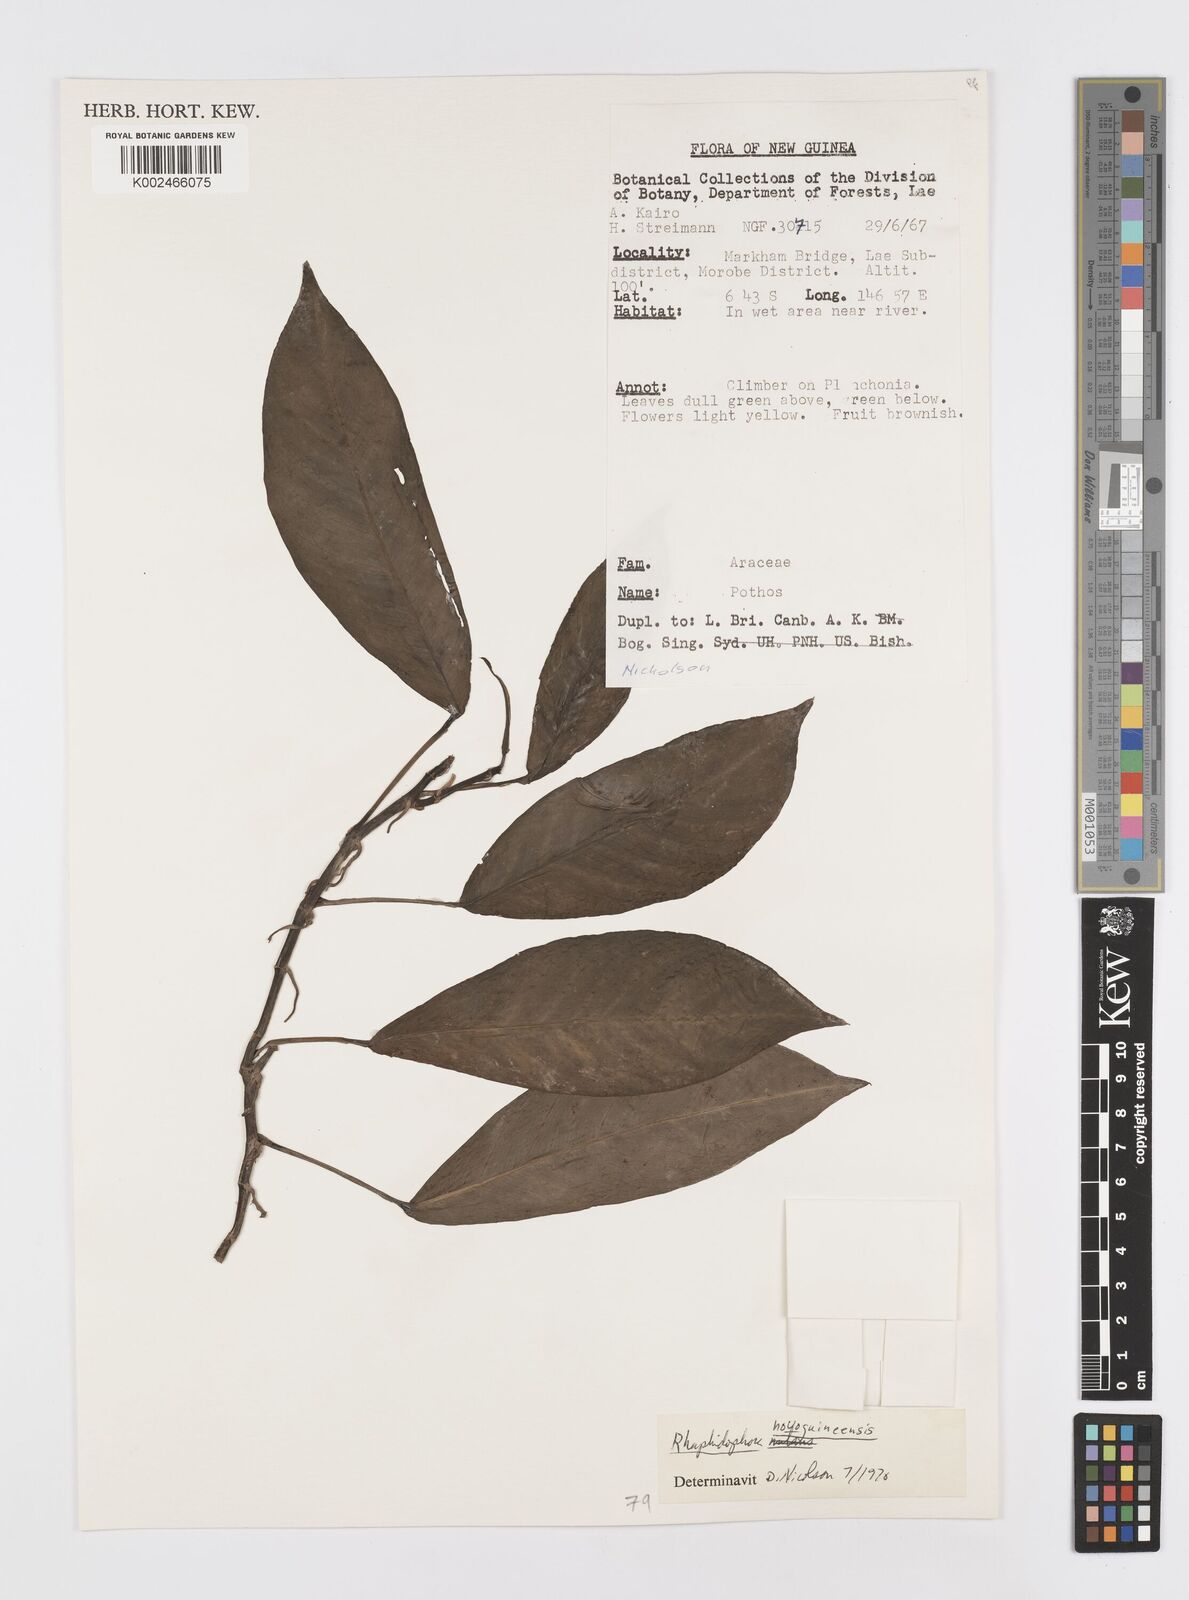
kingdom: Plantae
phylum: Tracheophyta
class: Liliopsida
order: Alismatales
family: Araceae
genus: Rhaphidophora
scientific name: Rhaphidophora neoguineensis
